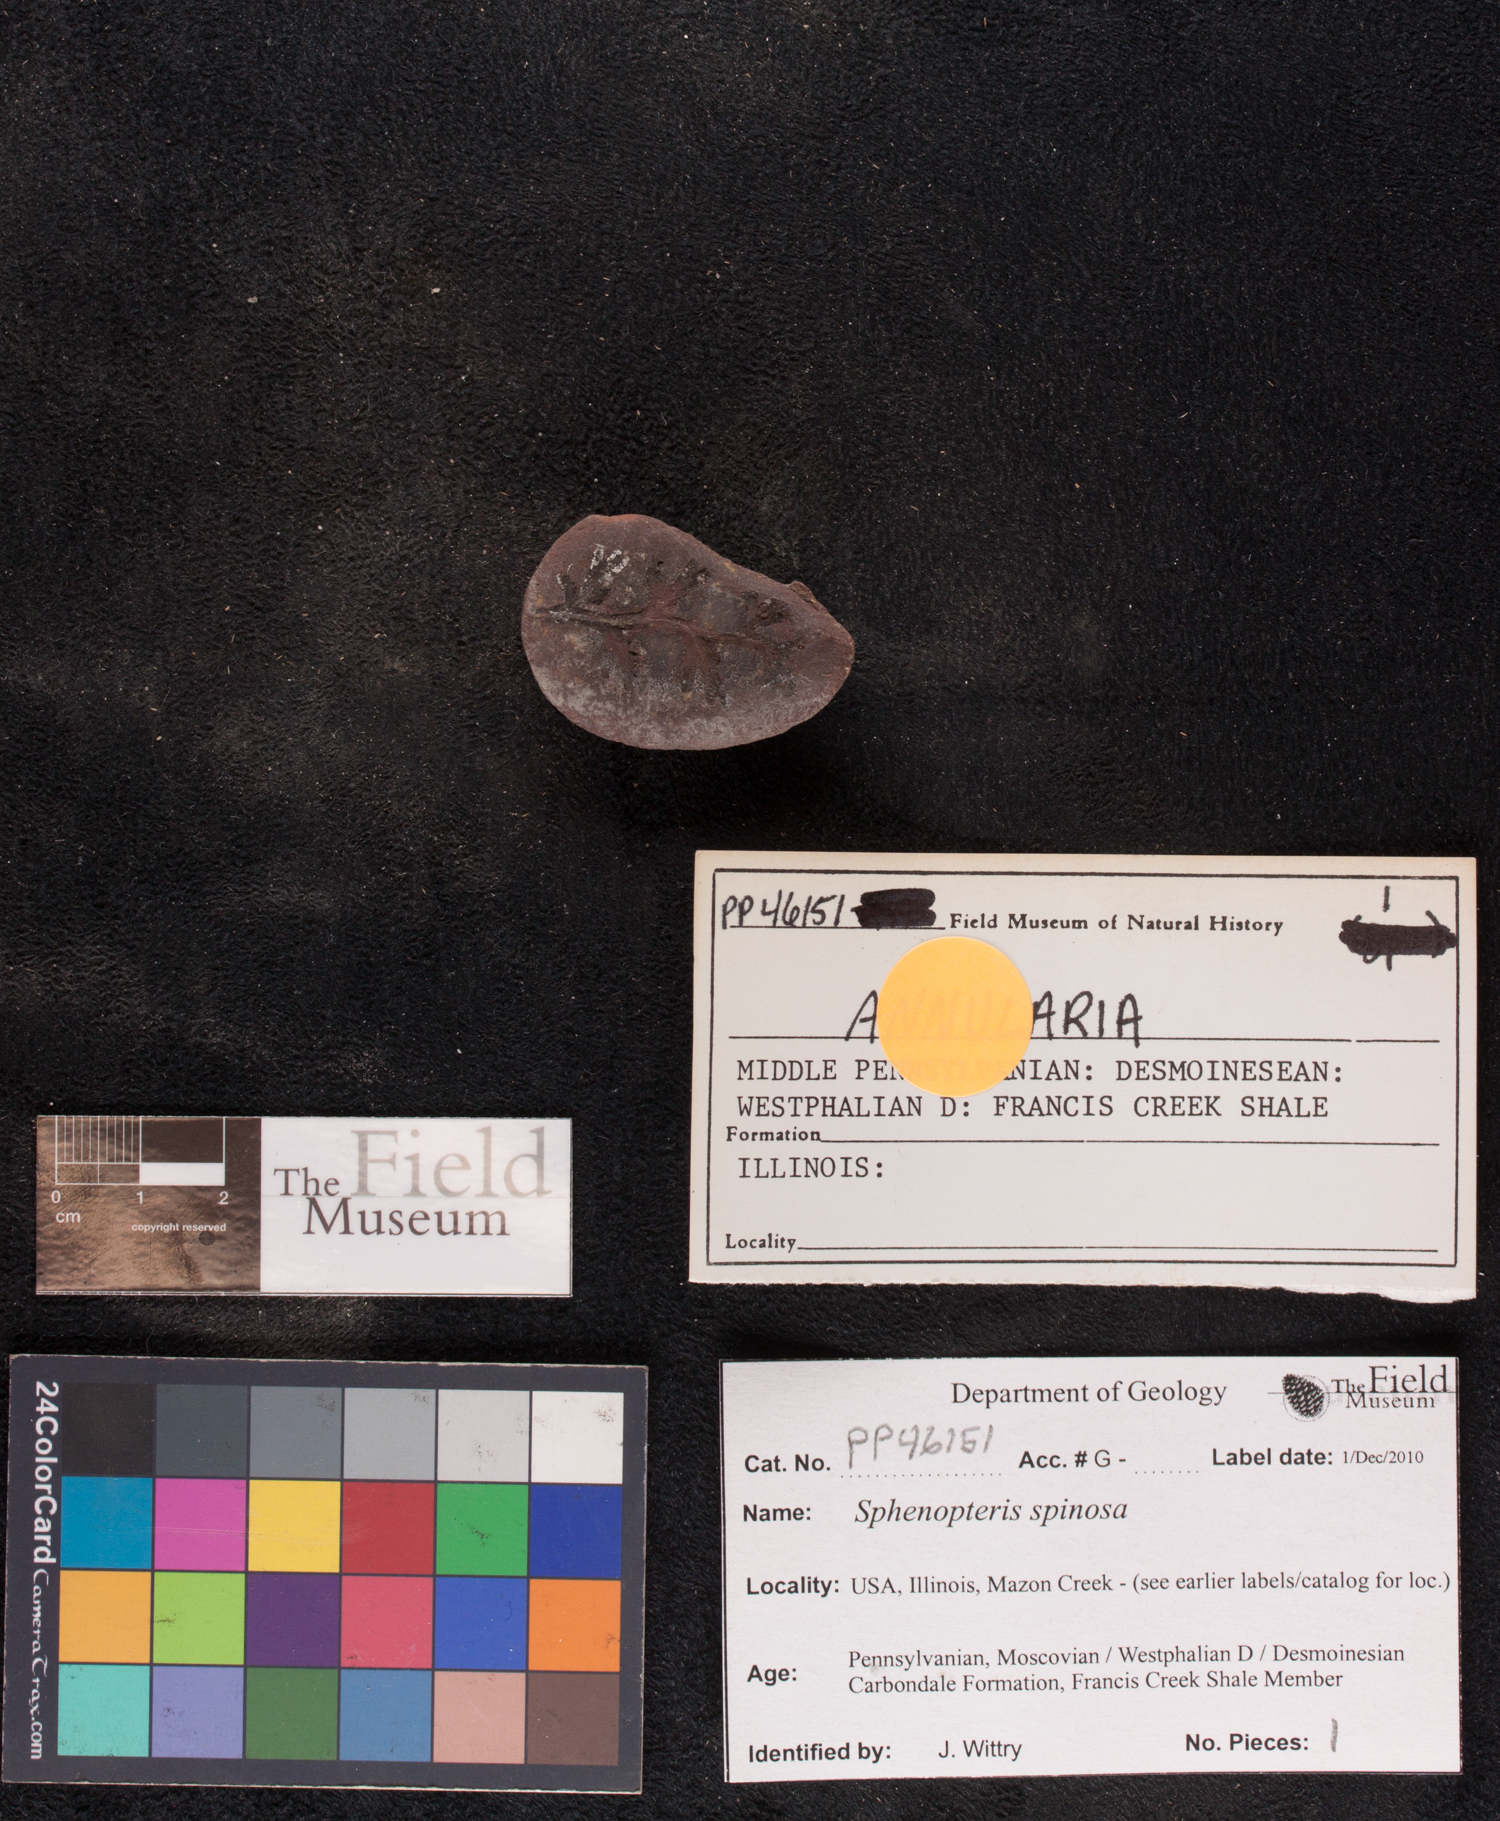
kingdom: Plantae
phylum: Tracheophyta
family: Lyginopteridaceae
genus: Sphenopteris
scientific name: Sphenopteris
